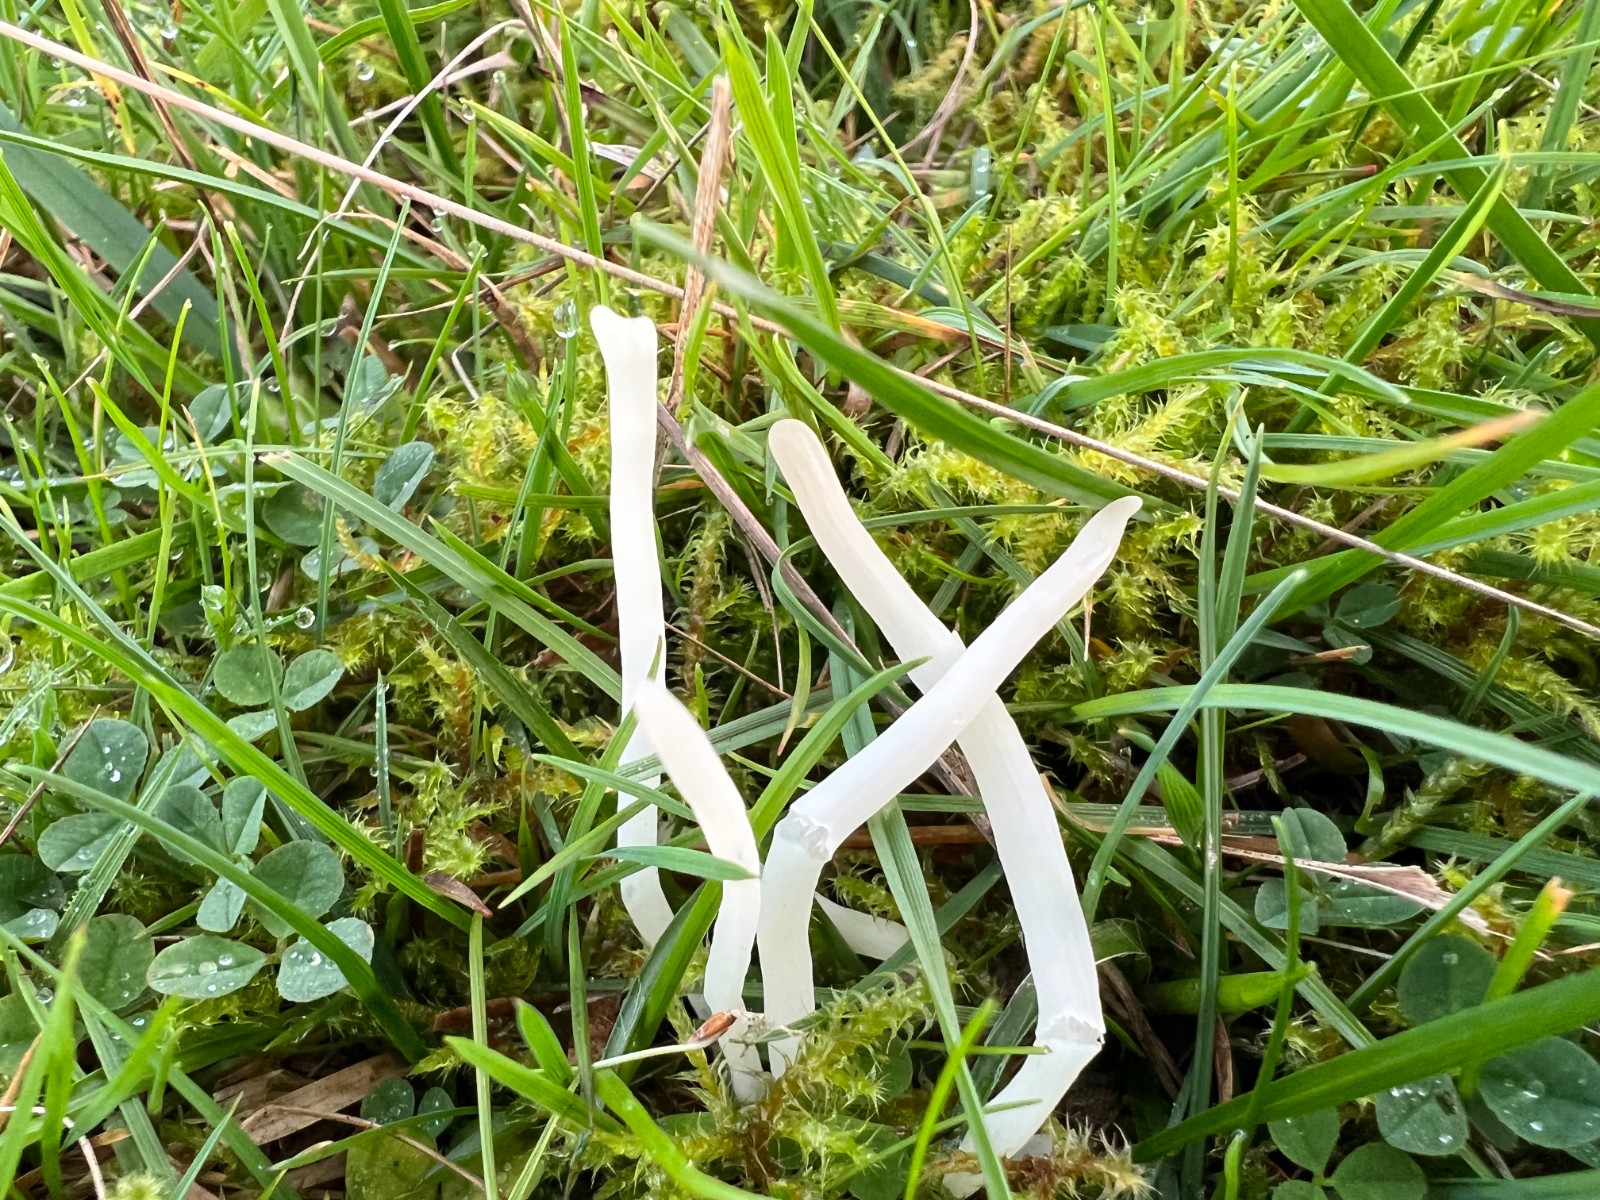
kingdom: Fungi
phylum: Basidiomycota
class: Agaricomycetes
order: Agaricales
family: Clavariaceae
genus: Clavaria
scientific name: Clavaria fragilis
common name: bugtet køllesvamp
